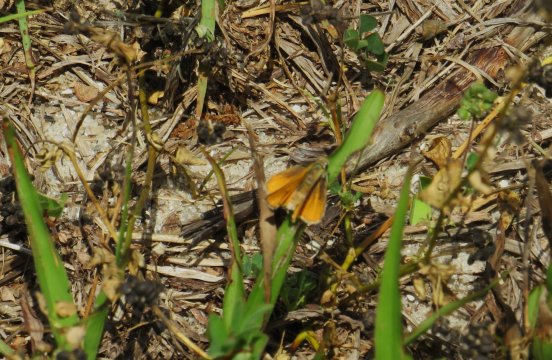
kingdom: Animalia
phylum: Arthropoda
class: Insecta
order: Lepidoptera
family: Hesperiidae
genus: Copaeodes
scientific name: Copaeodes minima
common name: Southern Skipperling
